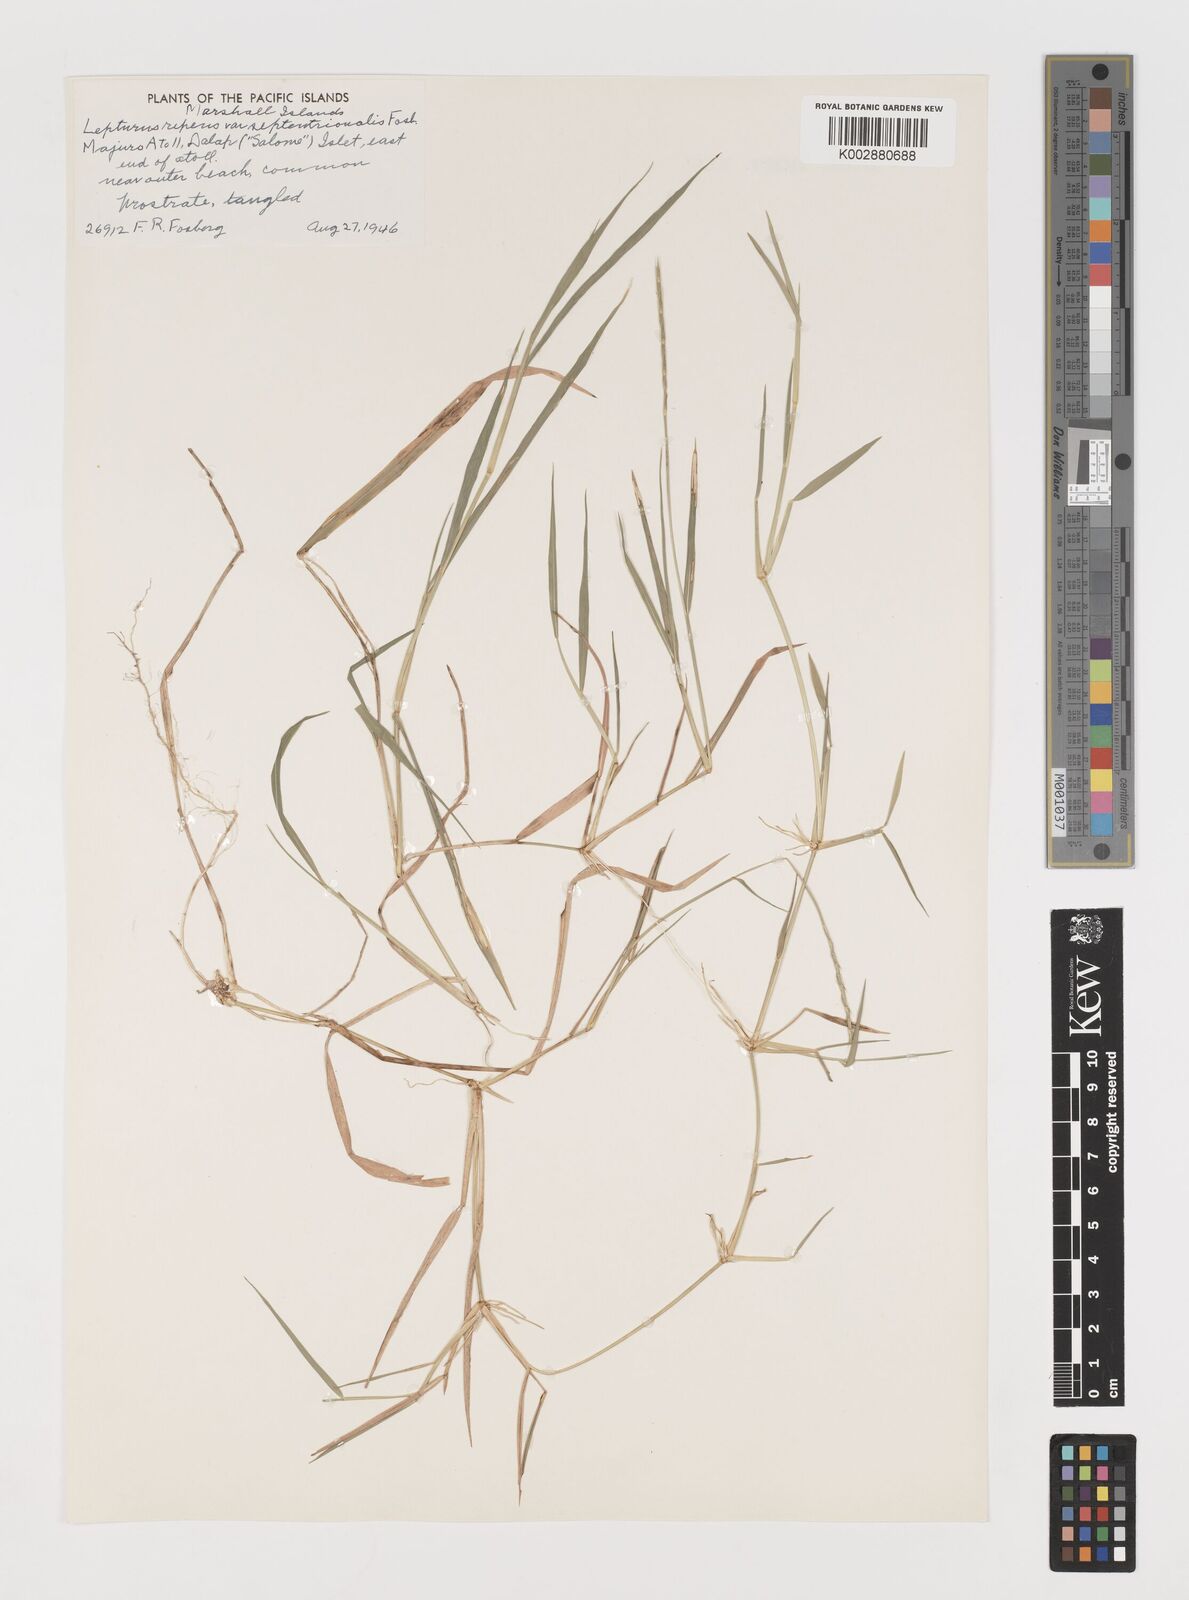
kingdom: Plantae
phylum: Tracheophyta
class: Liliopsida
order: Poales
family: Poaceae
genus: Lepturus
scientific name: Lepturus repens
